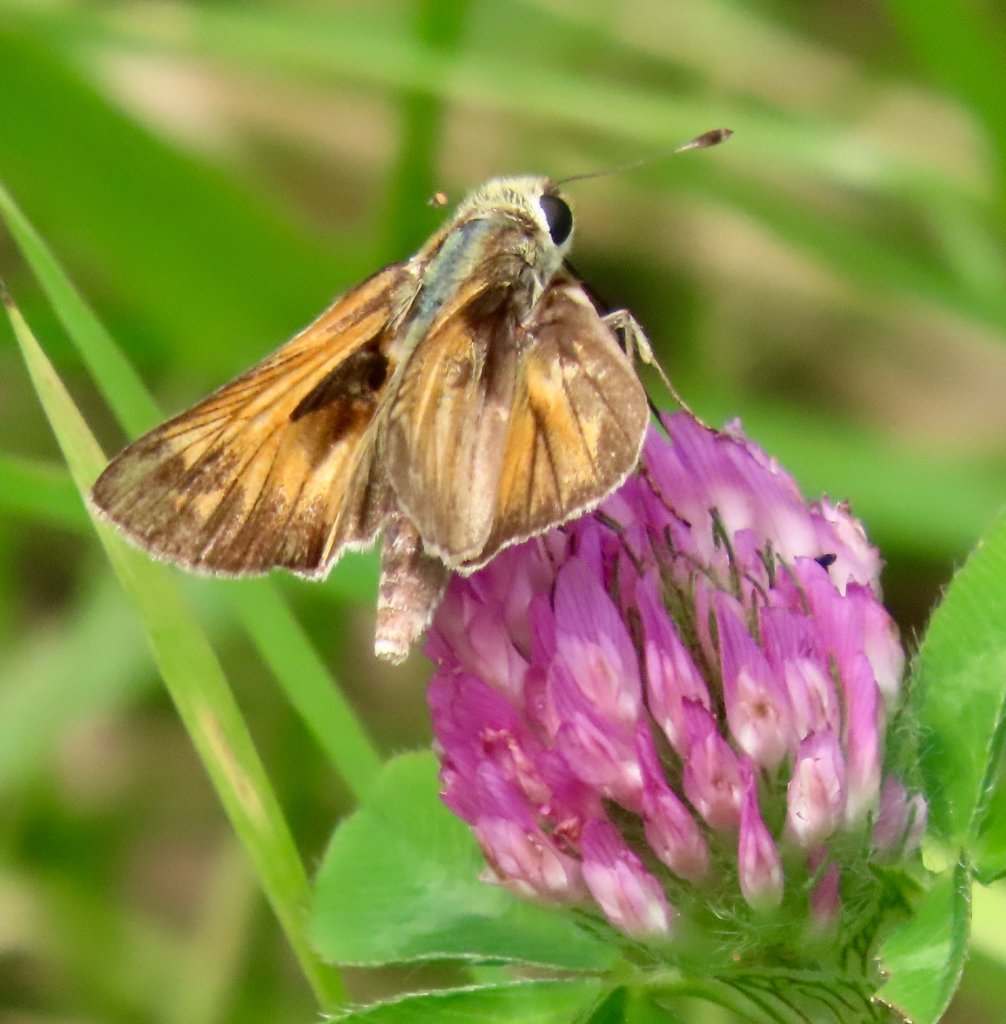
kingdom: Animalia
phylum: Arthropoda
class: Insecta
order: Lepidoptera
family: Hesperiidae
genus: Atalopedes
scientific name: Atalopedes campestris
